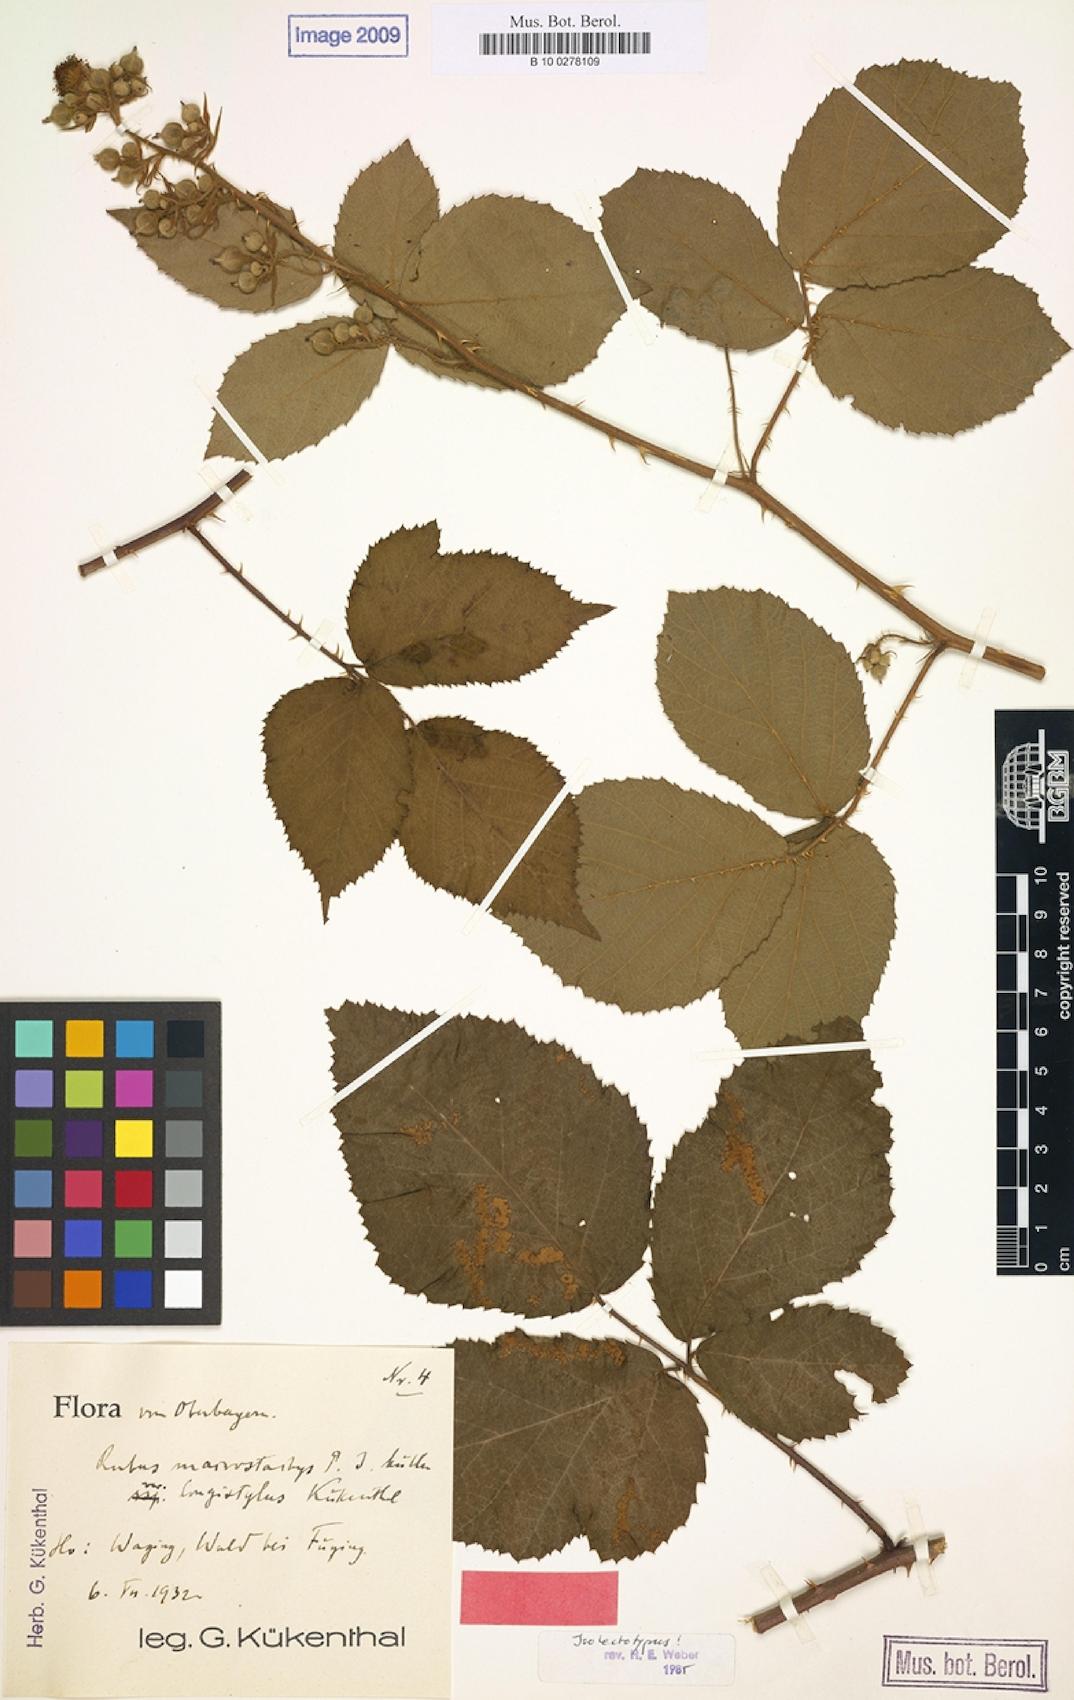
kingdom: Plantae
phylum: Tracheophyta
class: Magnoliopsida
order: Rosales
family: Rosaceae
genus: Rubus
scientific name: Rubus macrostachys
